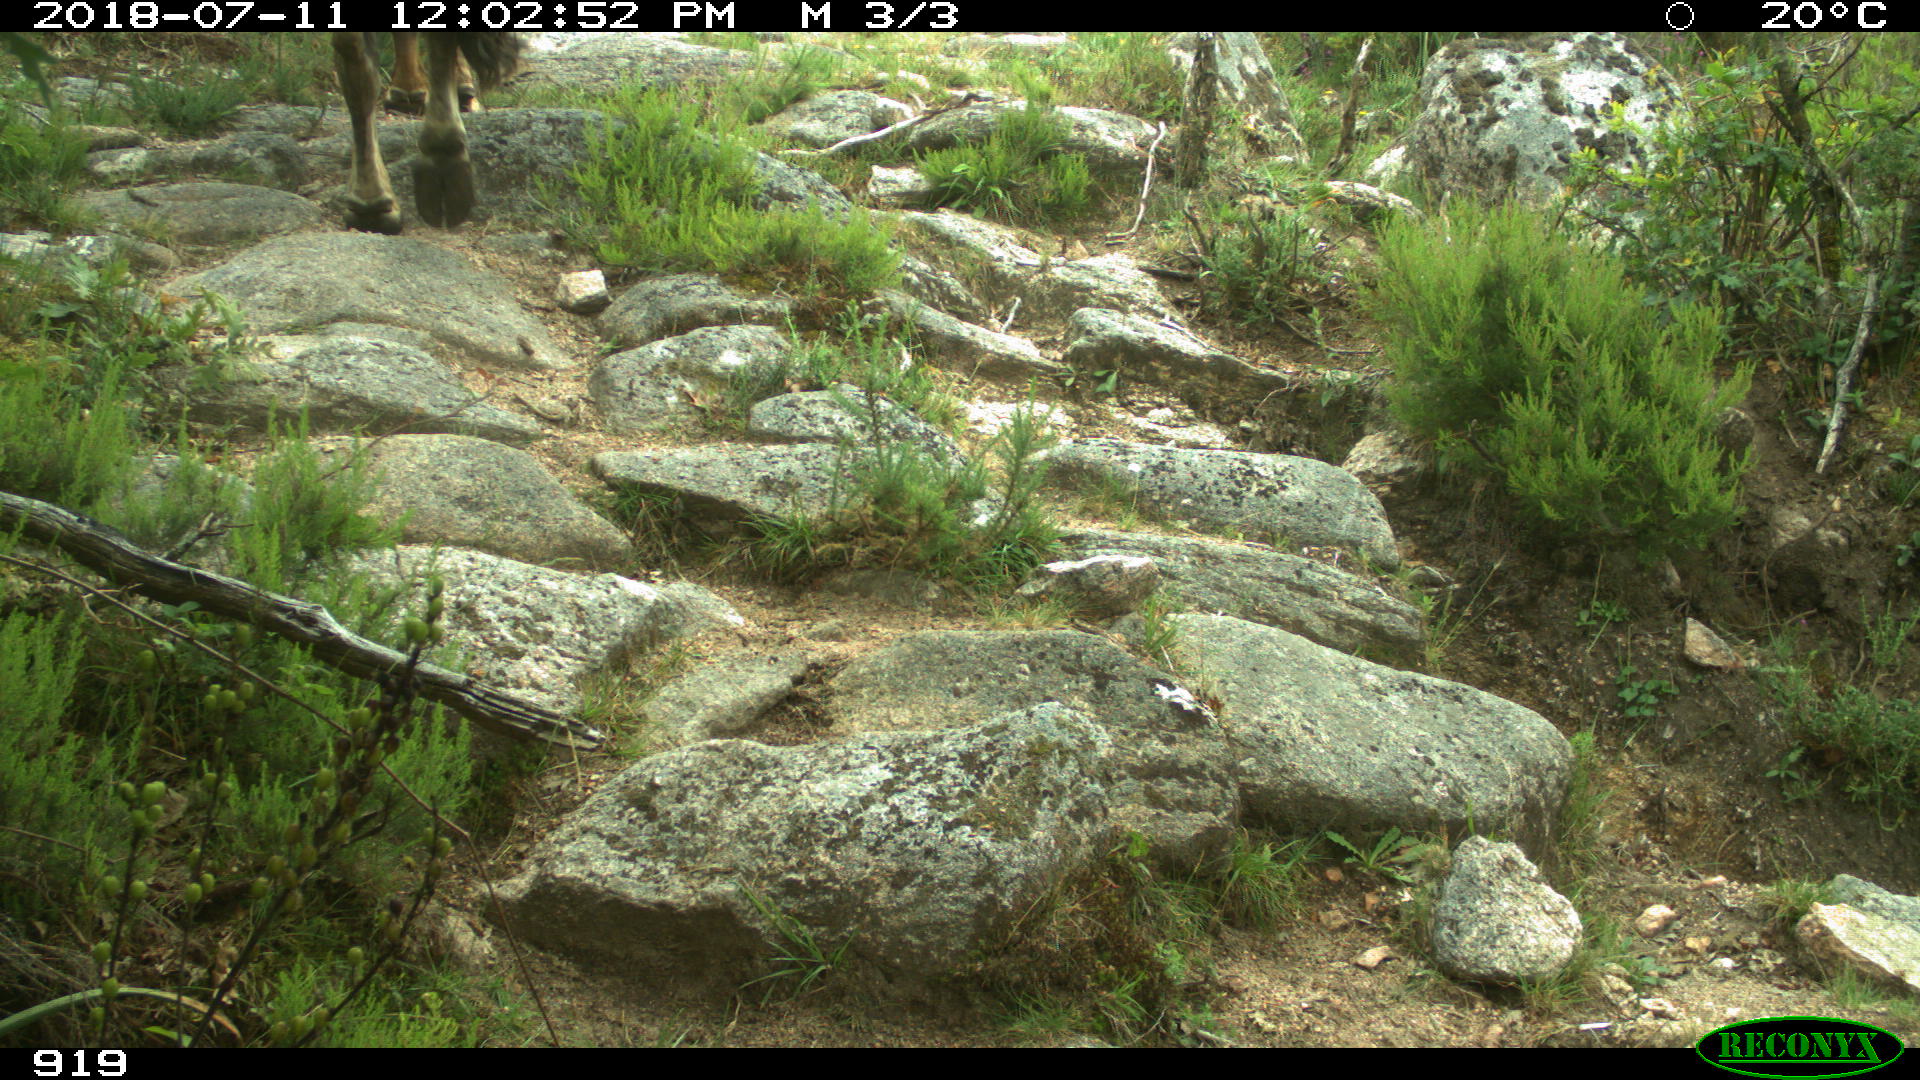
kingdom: Animalia
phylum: Chordata
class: Mammalia
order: Artiodactyla
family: Bovidae
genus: Bos
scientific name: Bos taurus
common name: Domesticated cattle
